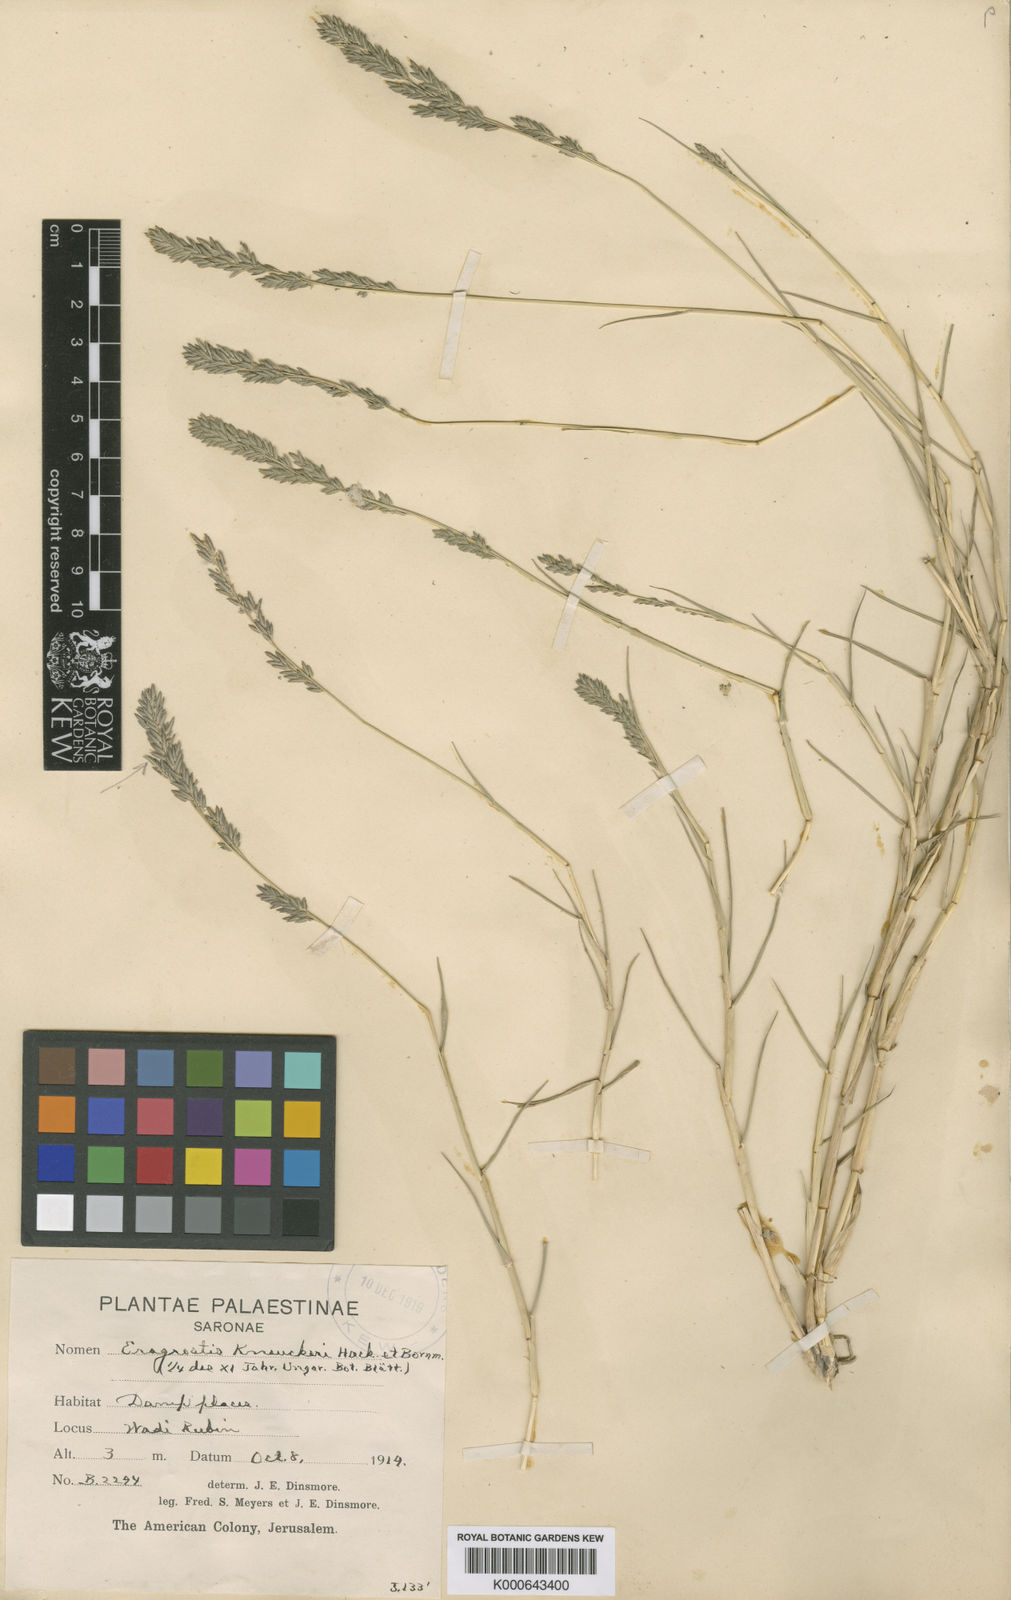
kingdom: Plantae
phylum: Tracheophyta
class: Liliopsida
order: Poales
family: Poaceae
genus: Eragrostis
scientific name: Eragrostis sarmentosa
